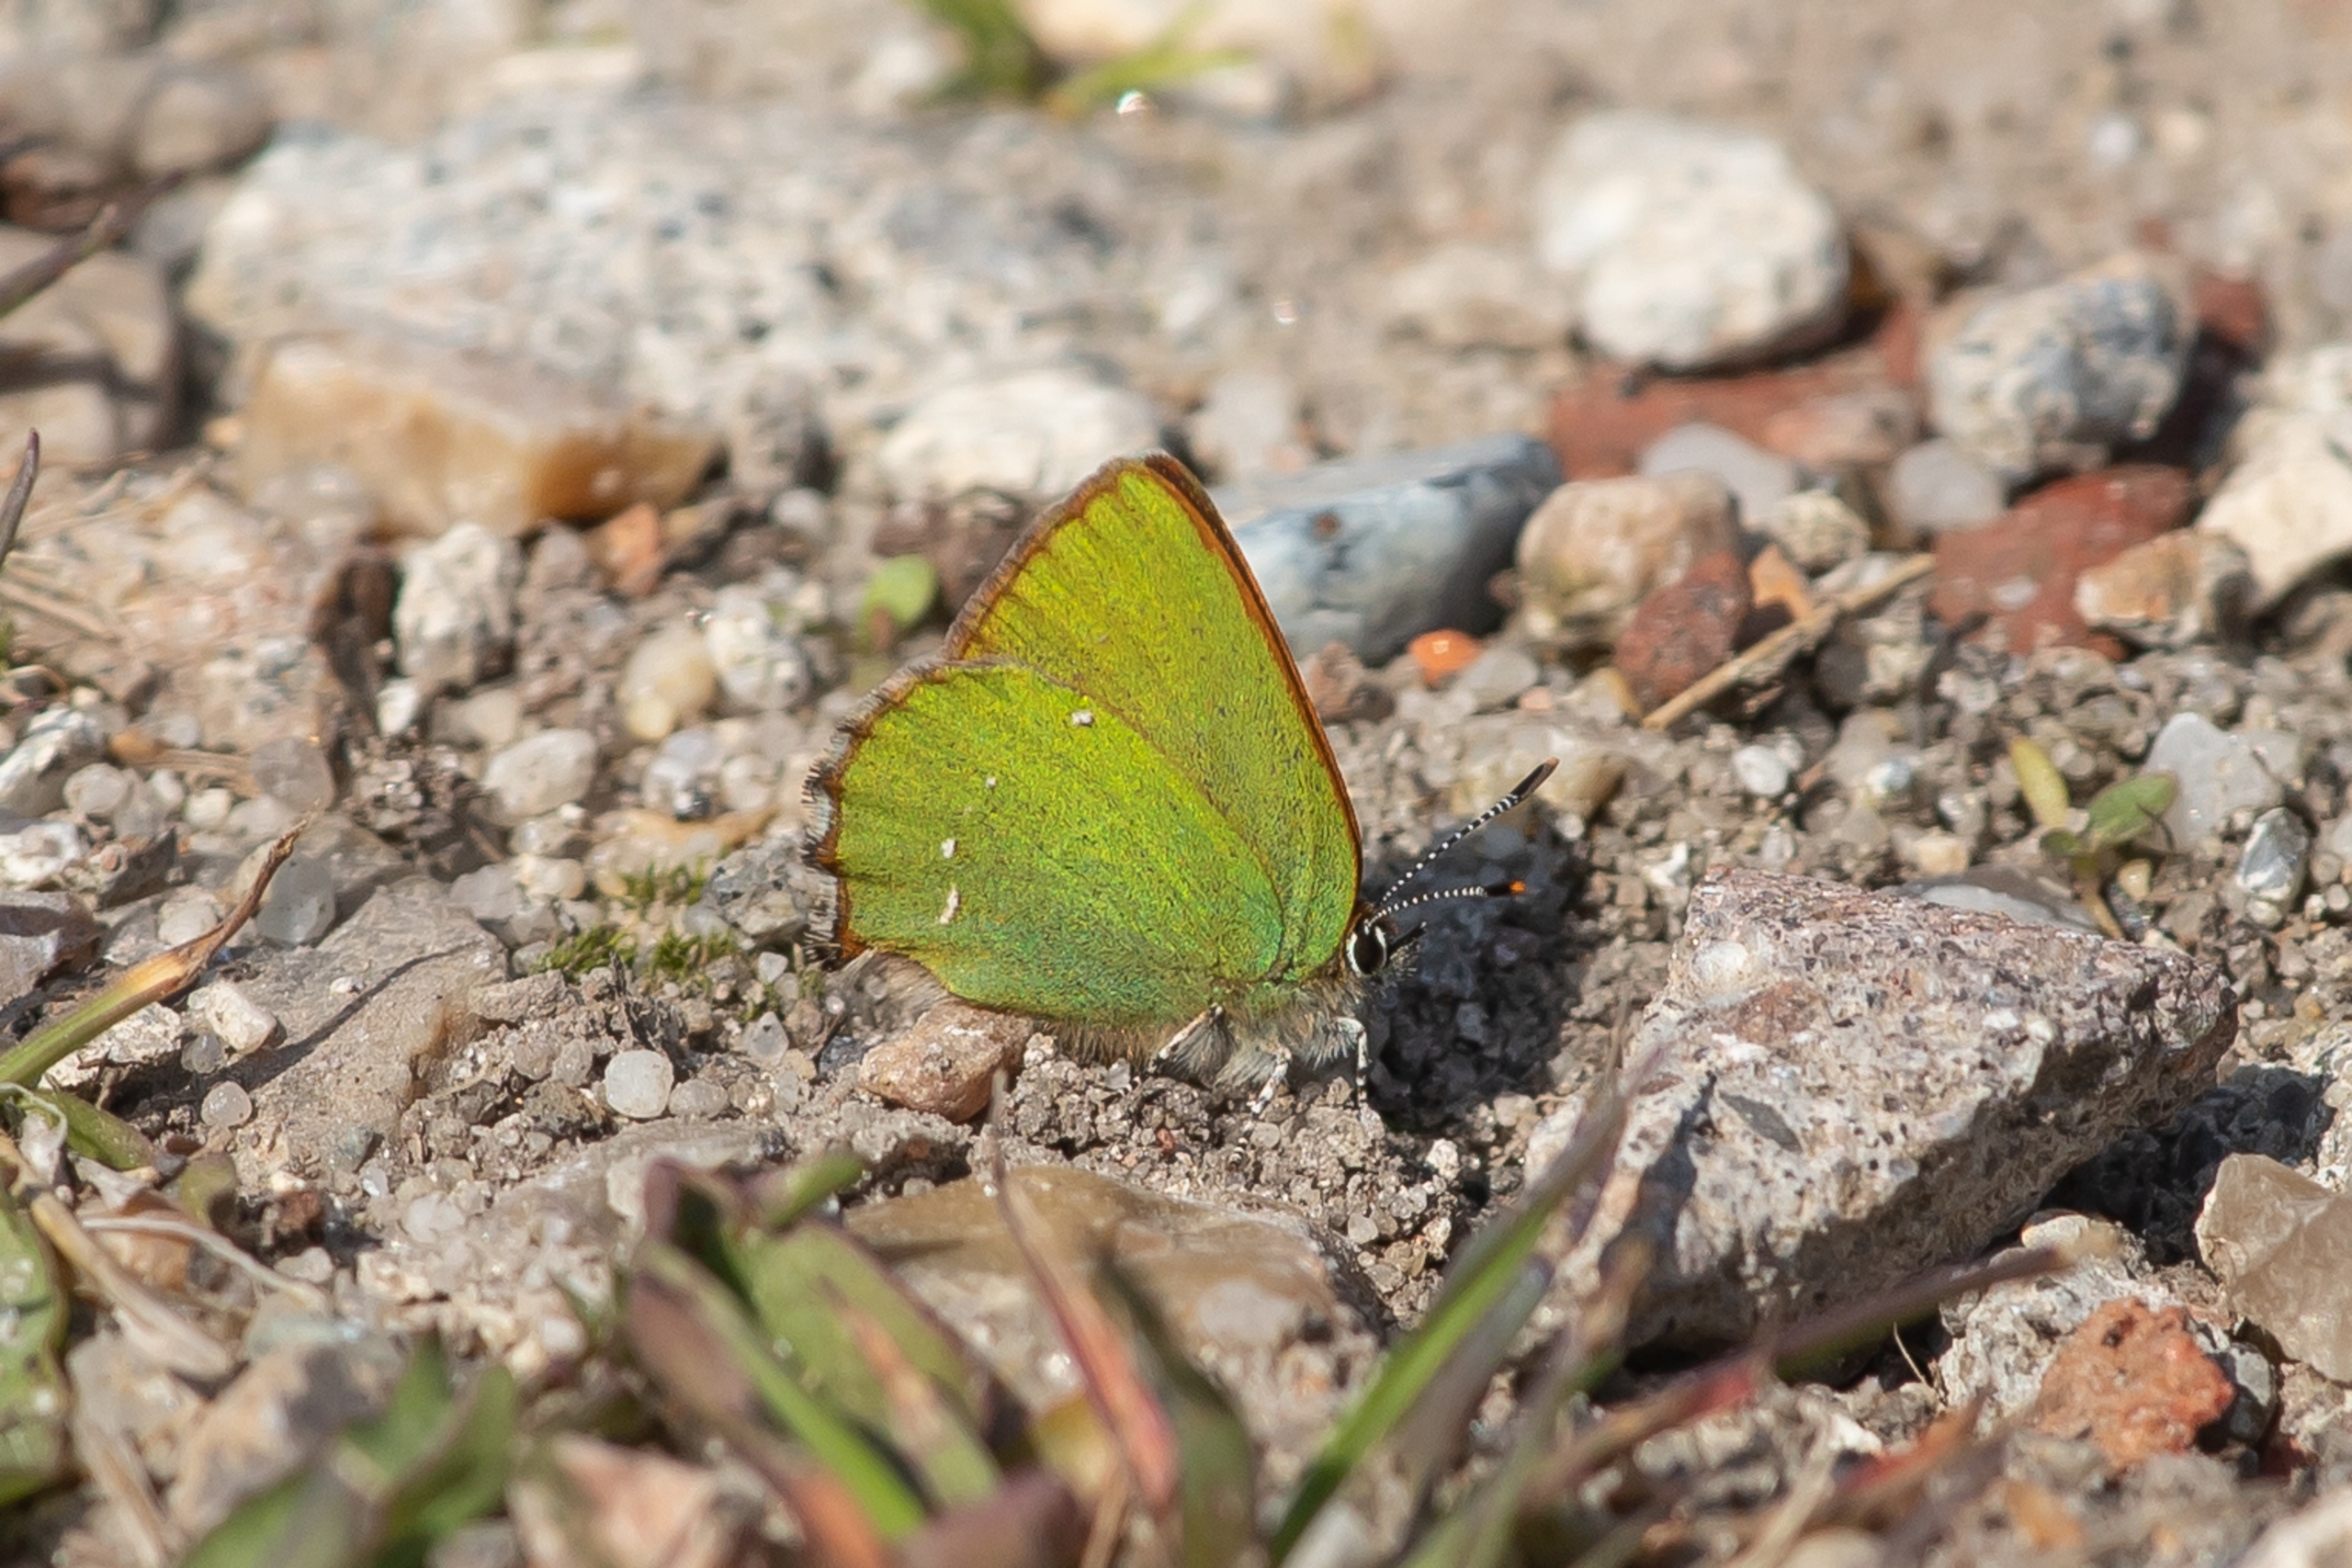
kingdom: Animalia
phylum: Arthropoda
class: Insecta
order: Lepidoptera
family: Lycaenidae
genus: Callophrys
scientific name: Callophrys rubi
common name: Grøn busksommerfugl
